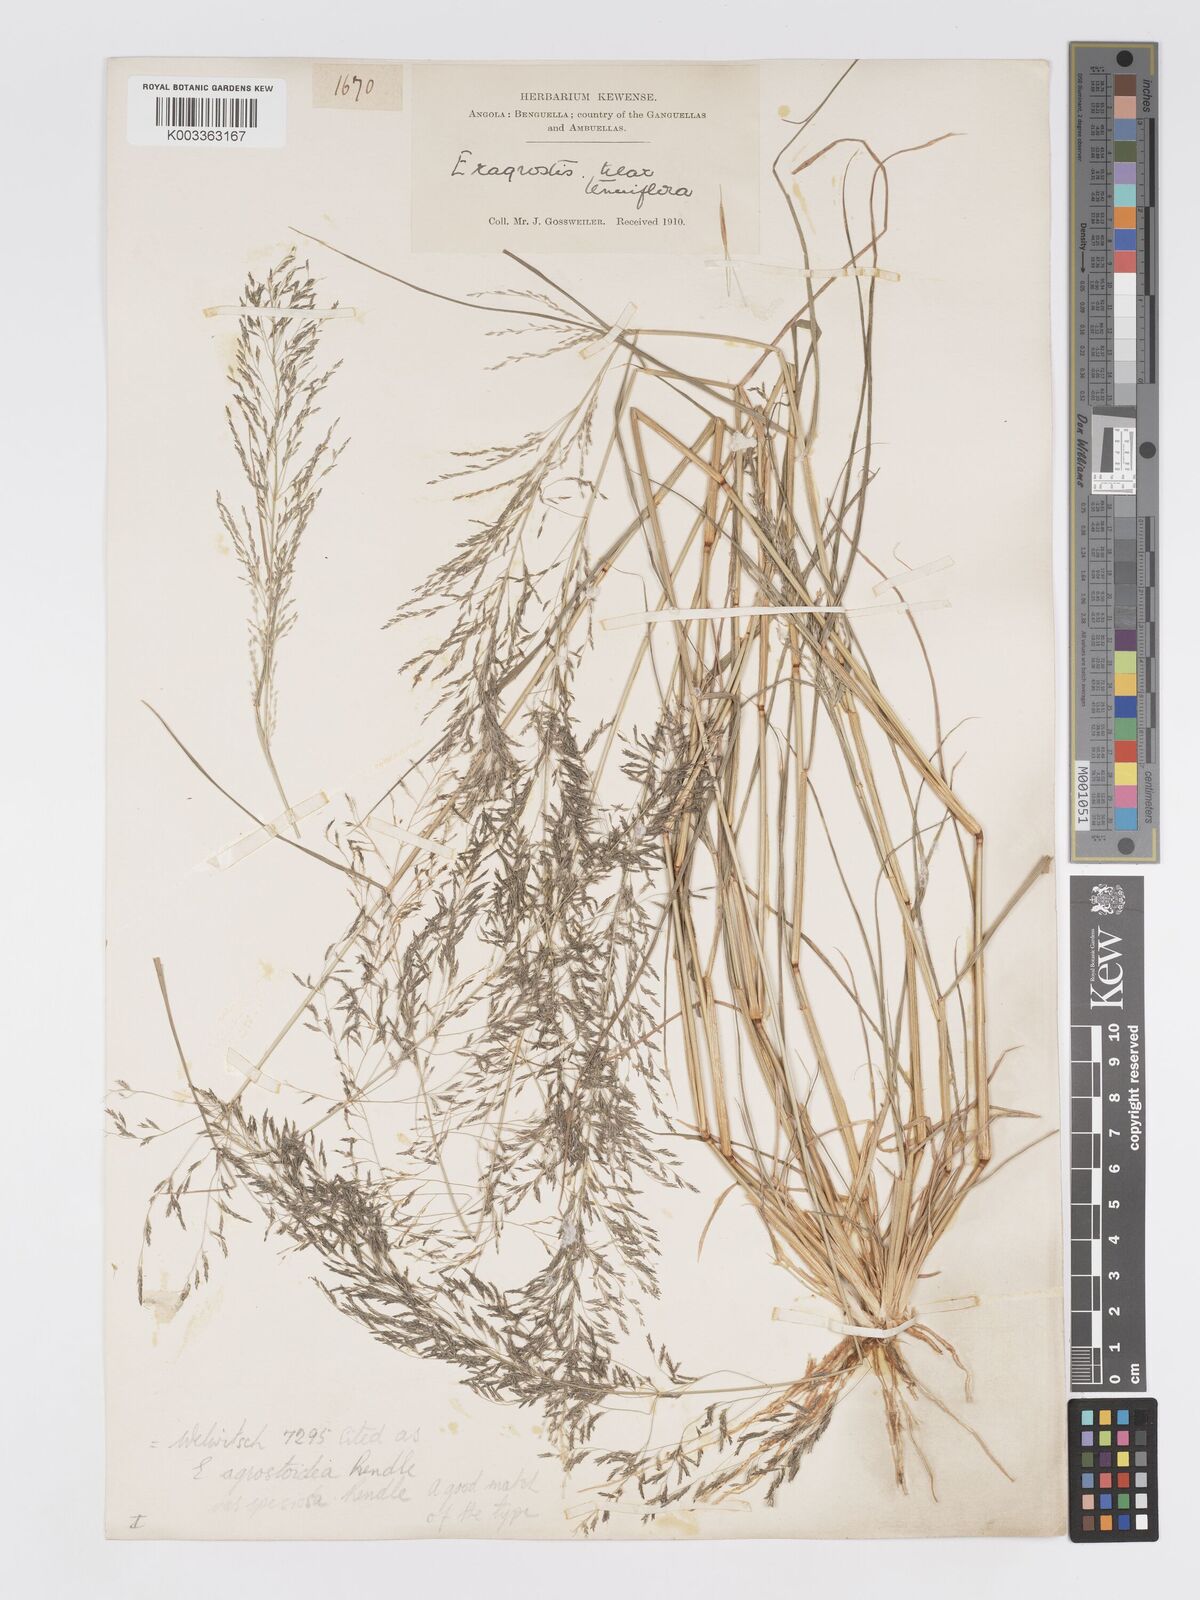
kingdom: Plantae
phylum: Tracheophyta
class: Liliopsida
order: Poales
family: Poaceae
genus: Eragrostis
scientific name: Eragrostis cylindriflora
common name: Cylinderflower lovegrass
